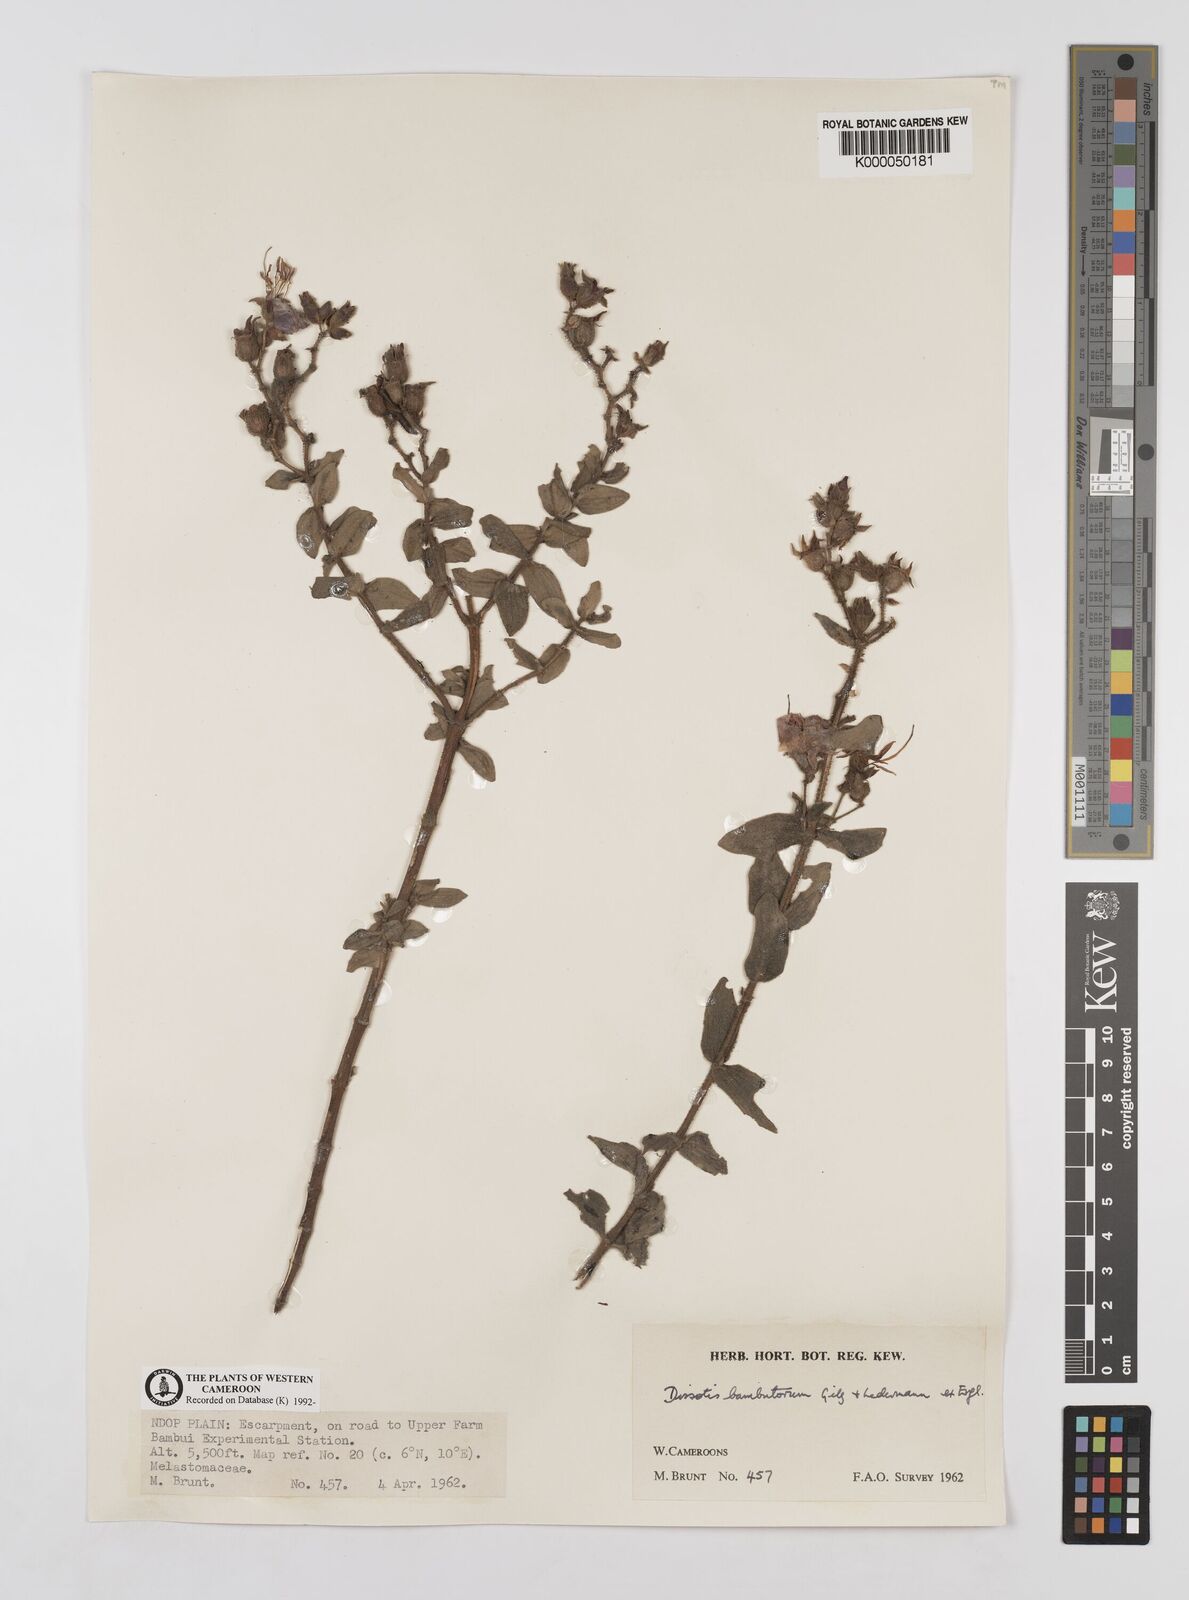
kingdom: Plantae
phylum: Tracheophyta
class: Magnoliopsida
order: Myrtales
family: Melastomataceae
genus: Argyrella
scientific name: Argyrella bambutorum
